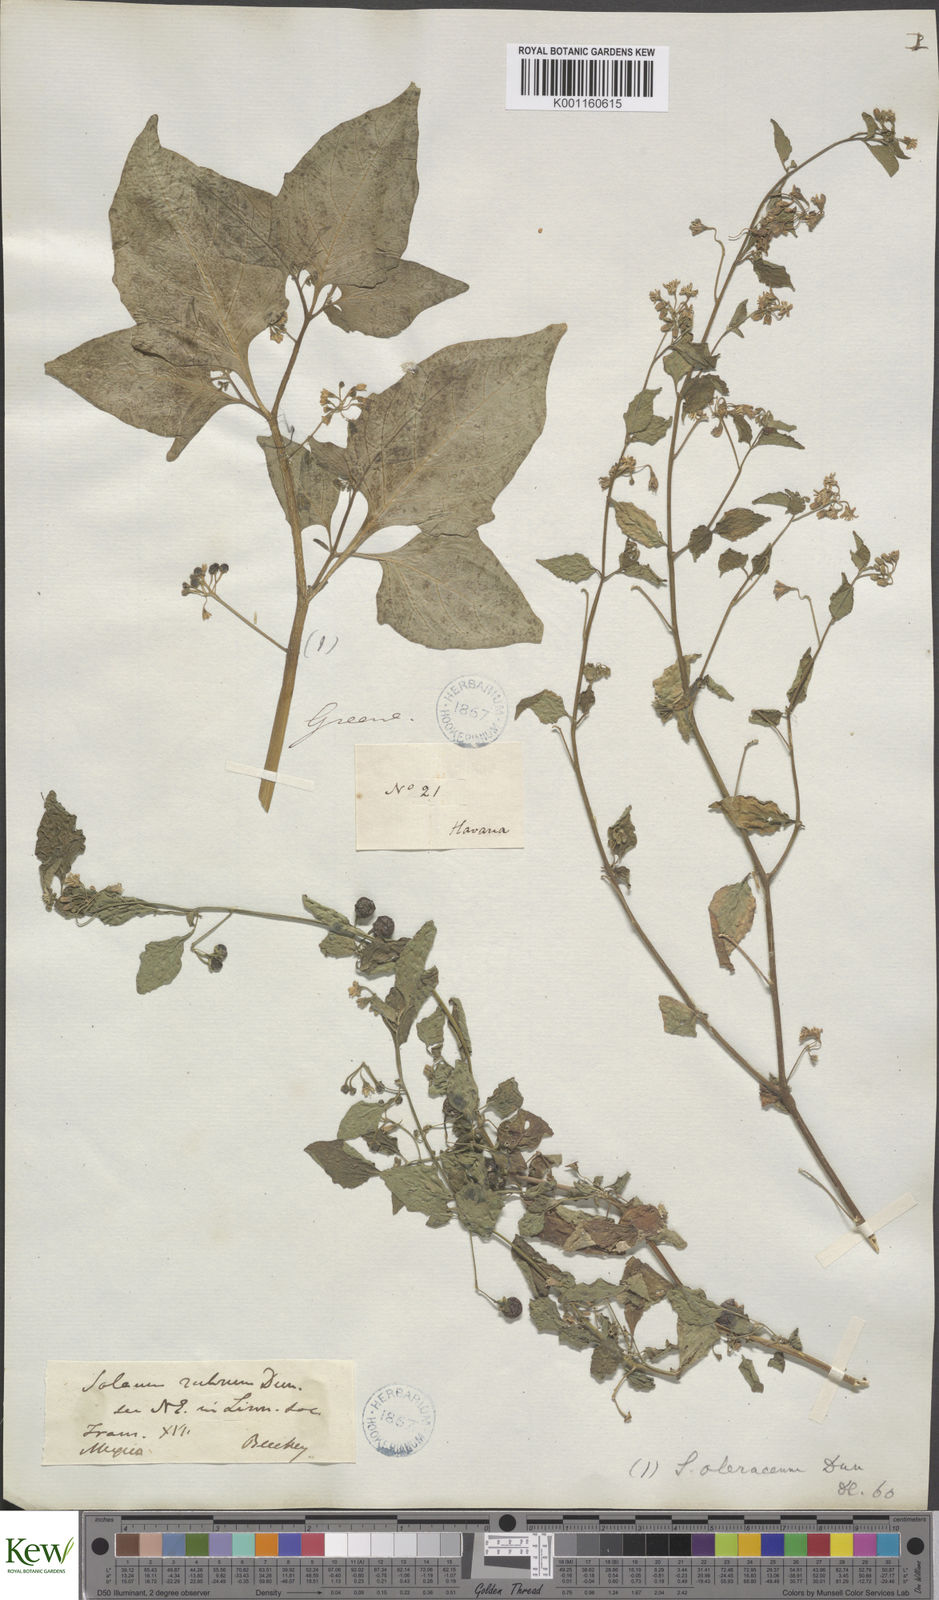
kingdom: Plantae
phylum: Tracheophyta
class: Magnoliopsida
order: Solanales
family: Solanaceae
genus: Solanum
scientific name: Solanum americanum
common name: American black nightshade
